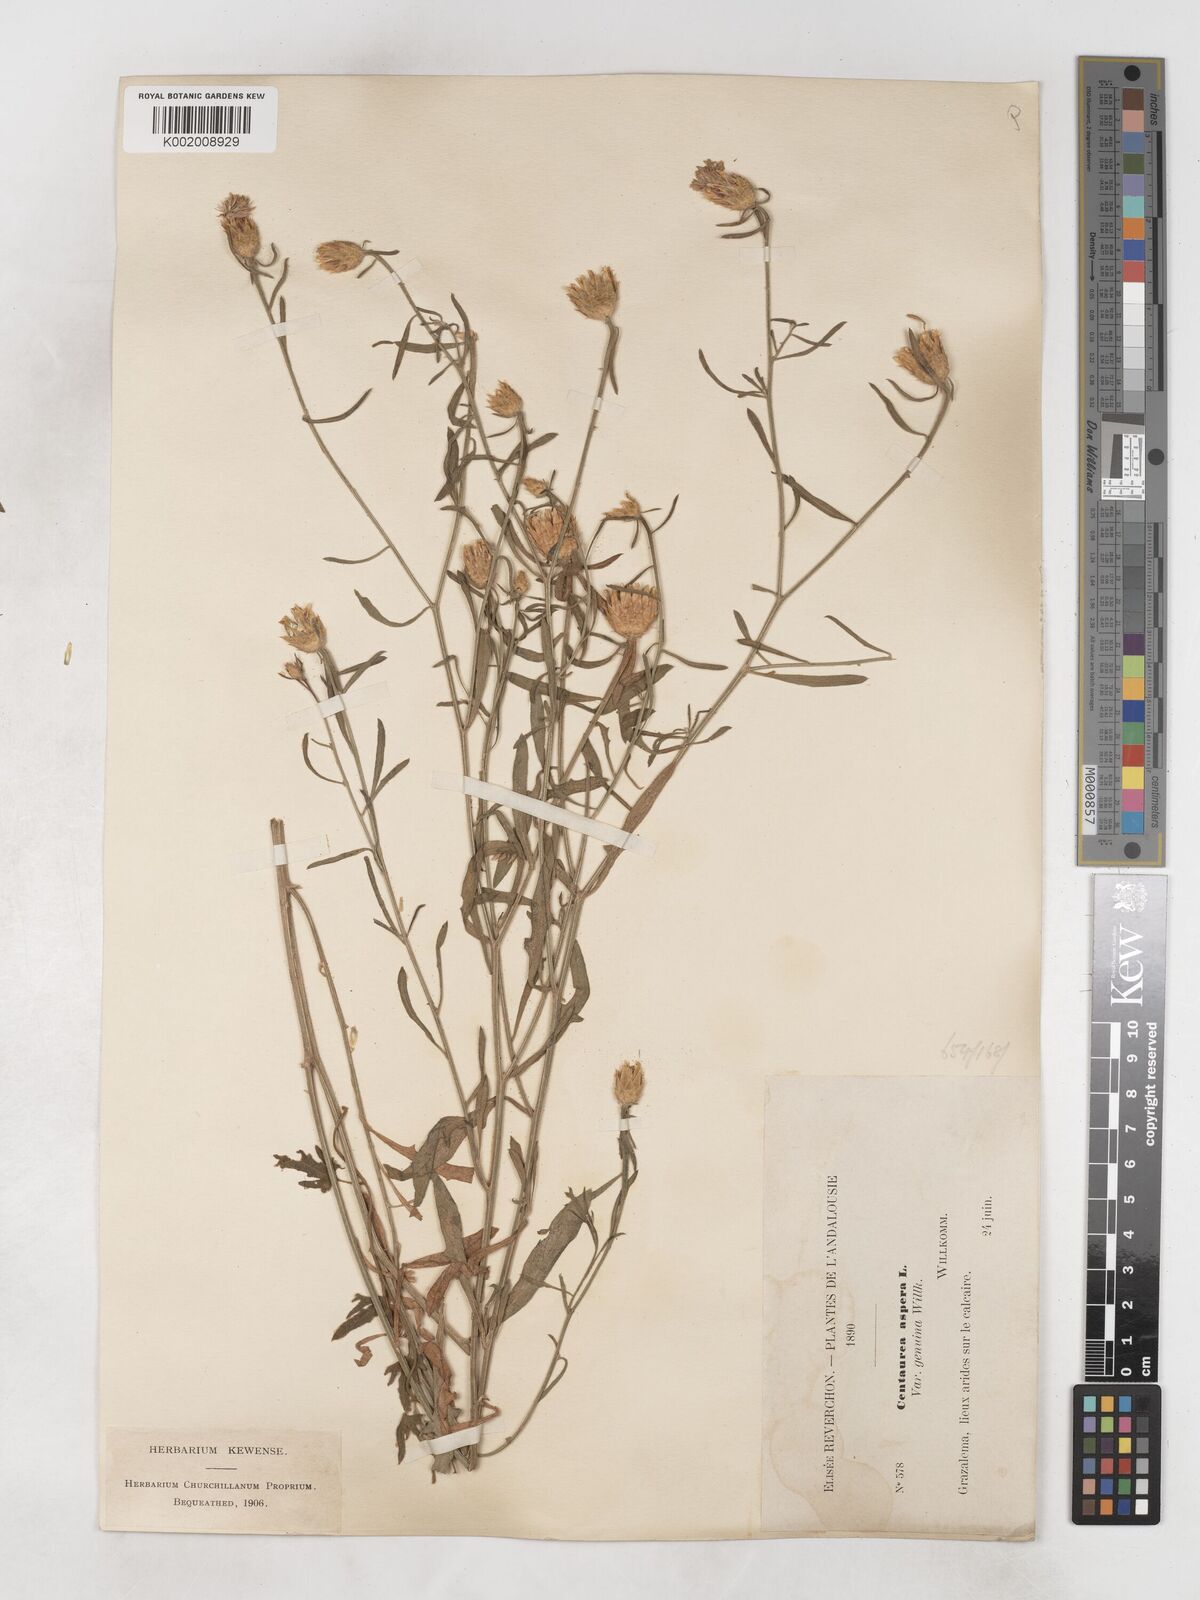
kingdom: Plantae
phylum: Tracheophyta
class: Magnoliopsida
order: Asterales
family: Asteraceae
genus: Centaurea
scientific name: Centaurea aspera
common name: Rough star-thistle
